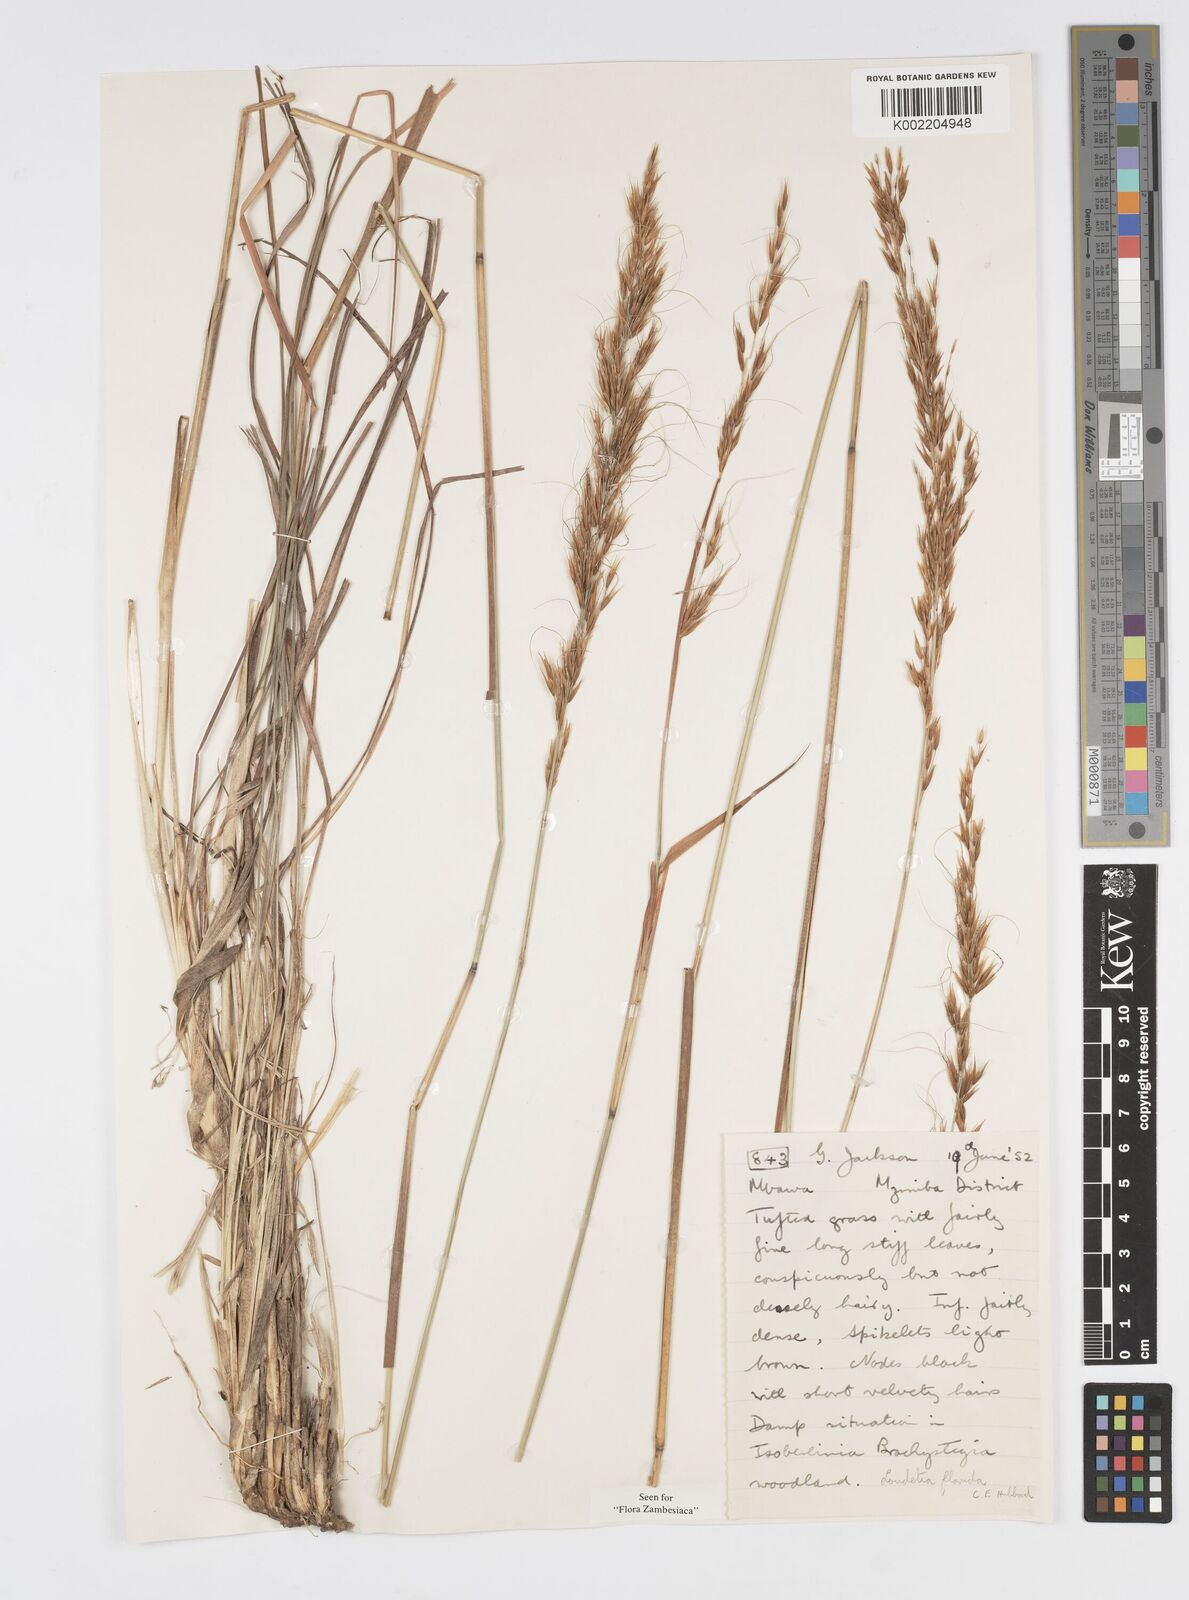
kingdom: Plantae
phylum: Tracheophyta
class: Liliopsida
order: Poales
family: Poaceae
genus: Loudetia
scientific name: Loudetia flavida
